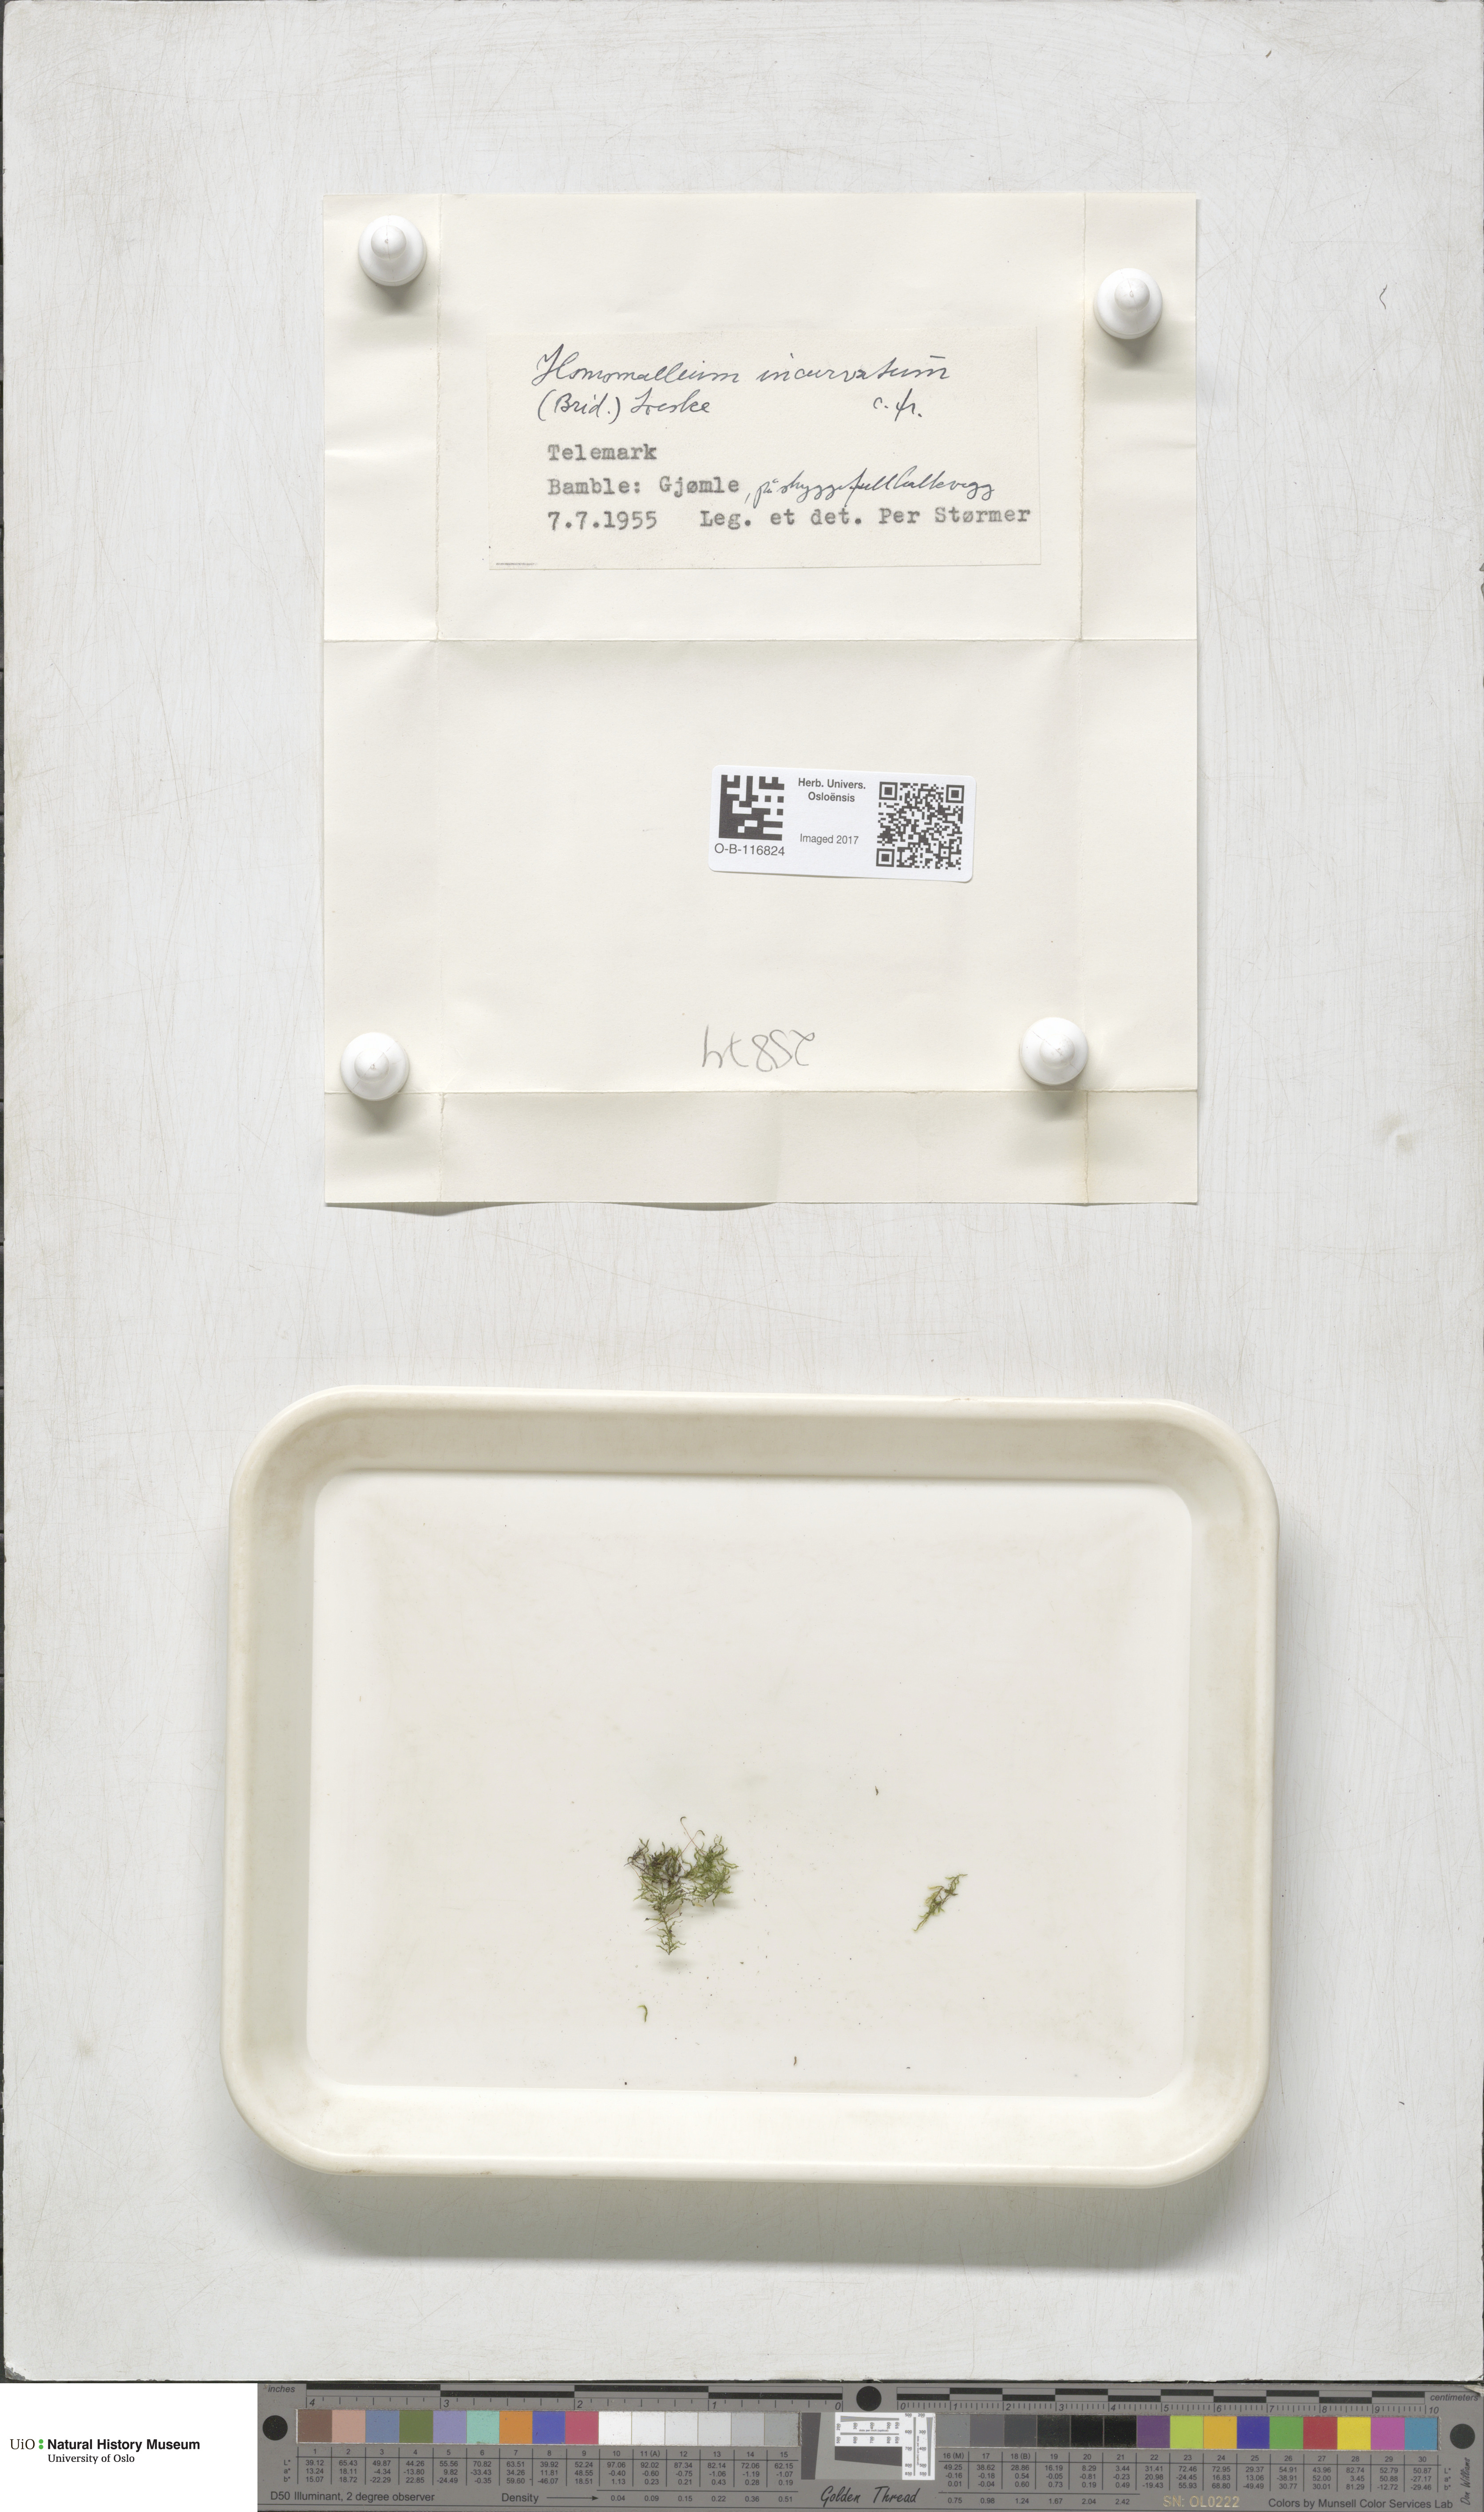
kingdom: Plantae
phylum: Bryophyta
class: Bryopsida
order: Hypnales
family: Pylaisiaceae
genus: Homomallium
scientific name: Homomallium incurvatum
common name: Incurved feather-moss
